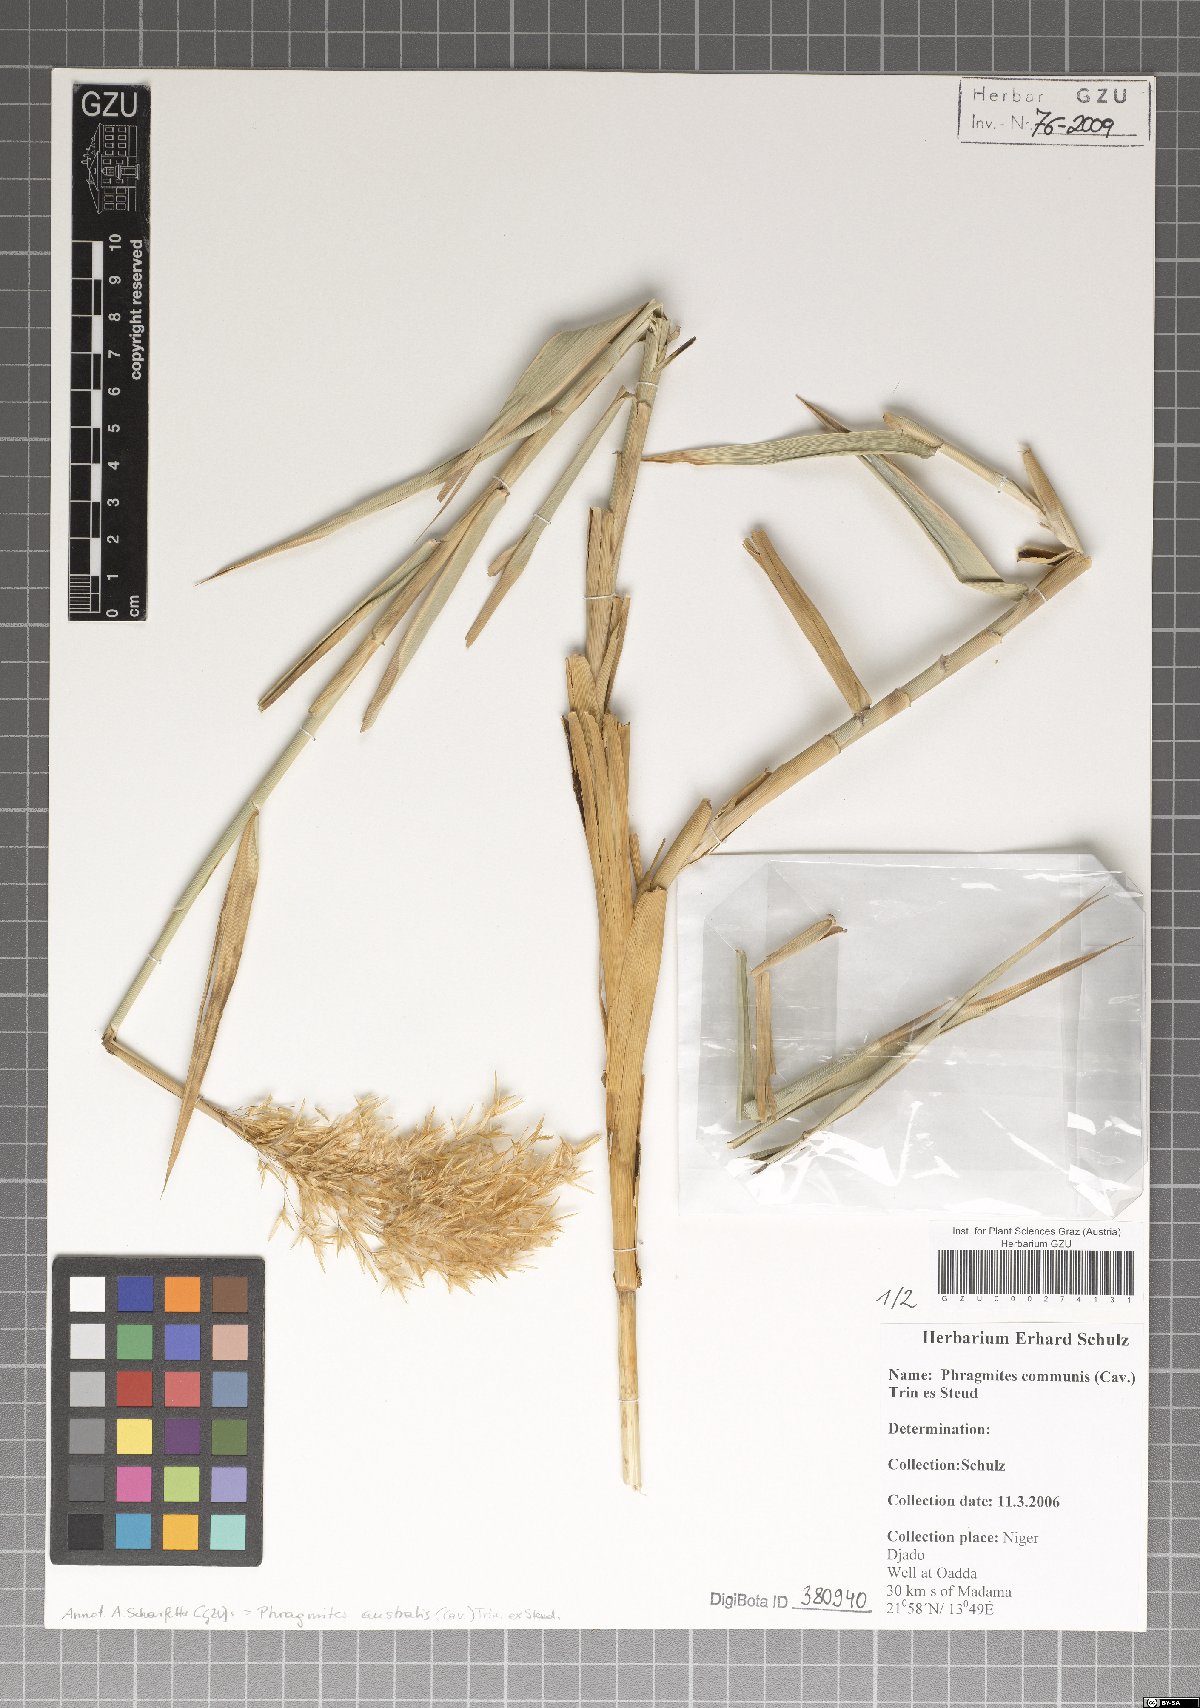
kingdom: Plantae
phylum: Tracheophyta
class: Liliopsida
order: Poales
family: Poaceae
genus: Phragmites
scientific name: Phragmites australis
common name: Common reed
